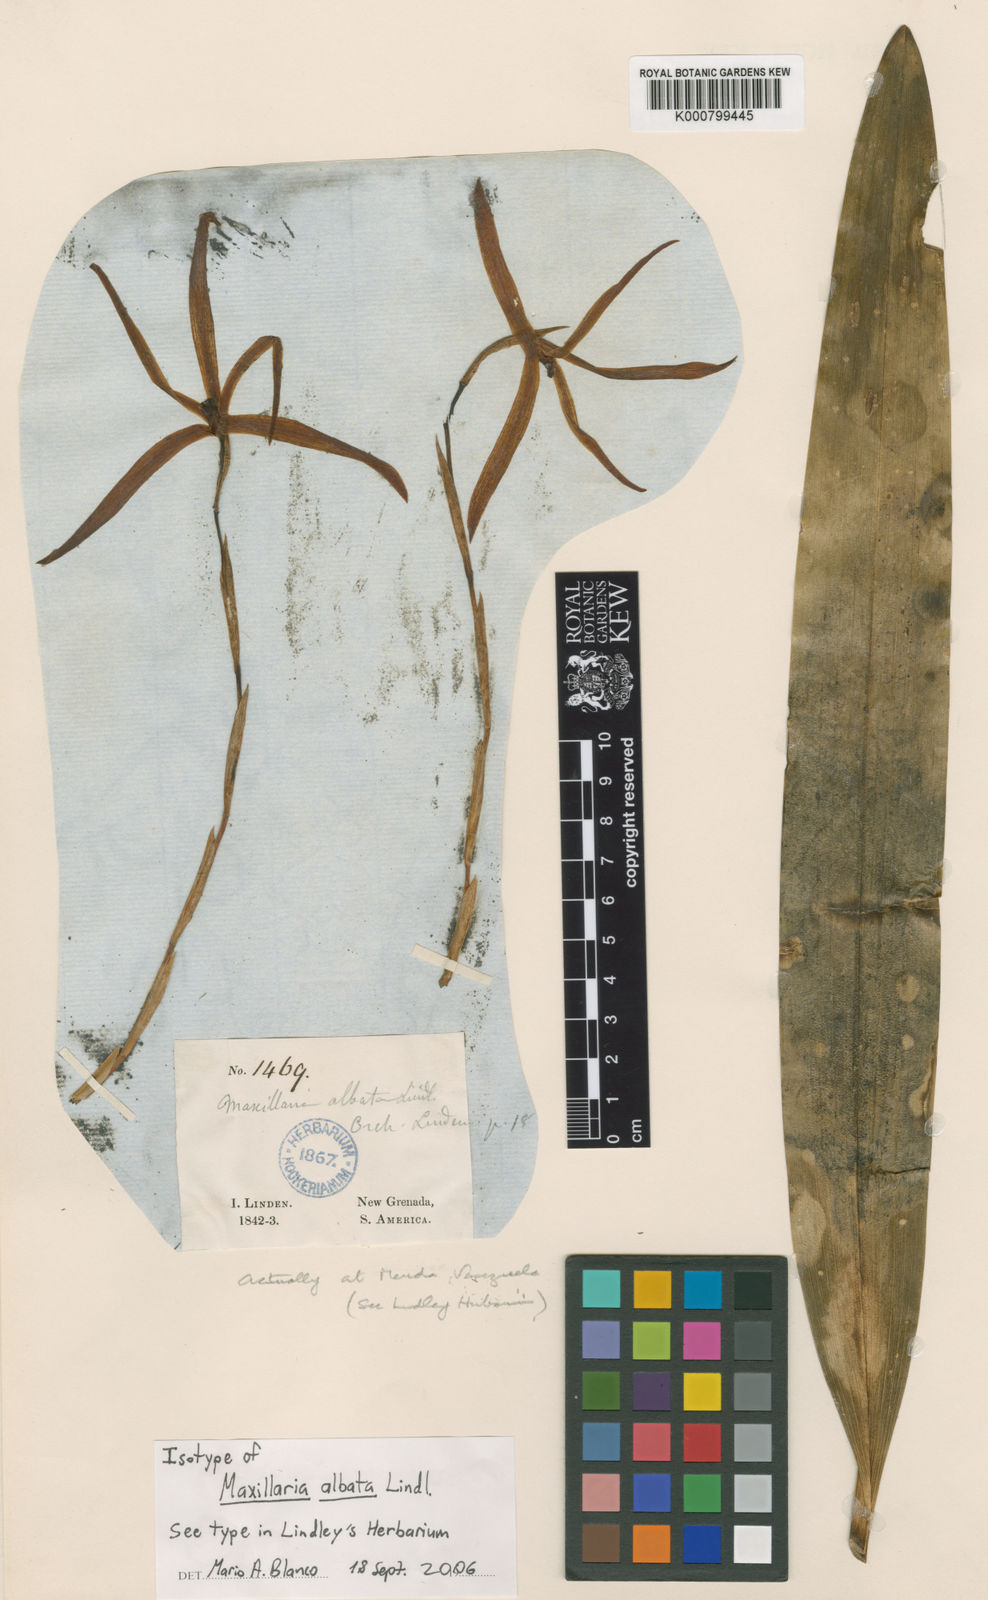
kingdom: Plantae
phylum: Tracheophyta
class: Liliopsida
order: Asparagales
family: Orchidaceae
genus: Maxillaria
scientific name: Maxillaria alba
